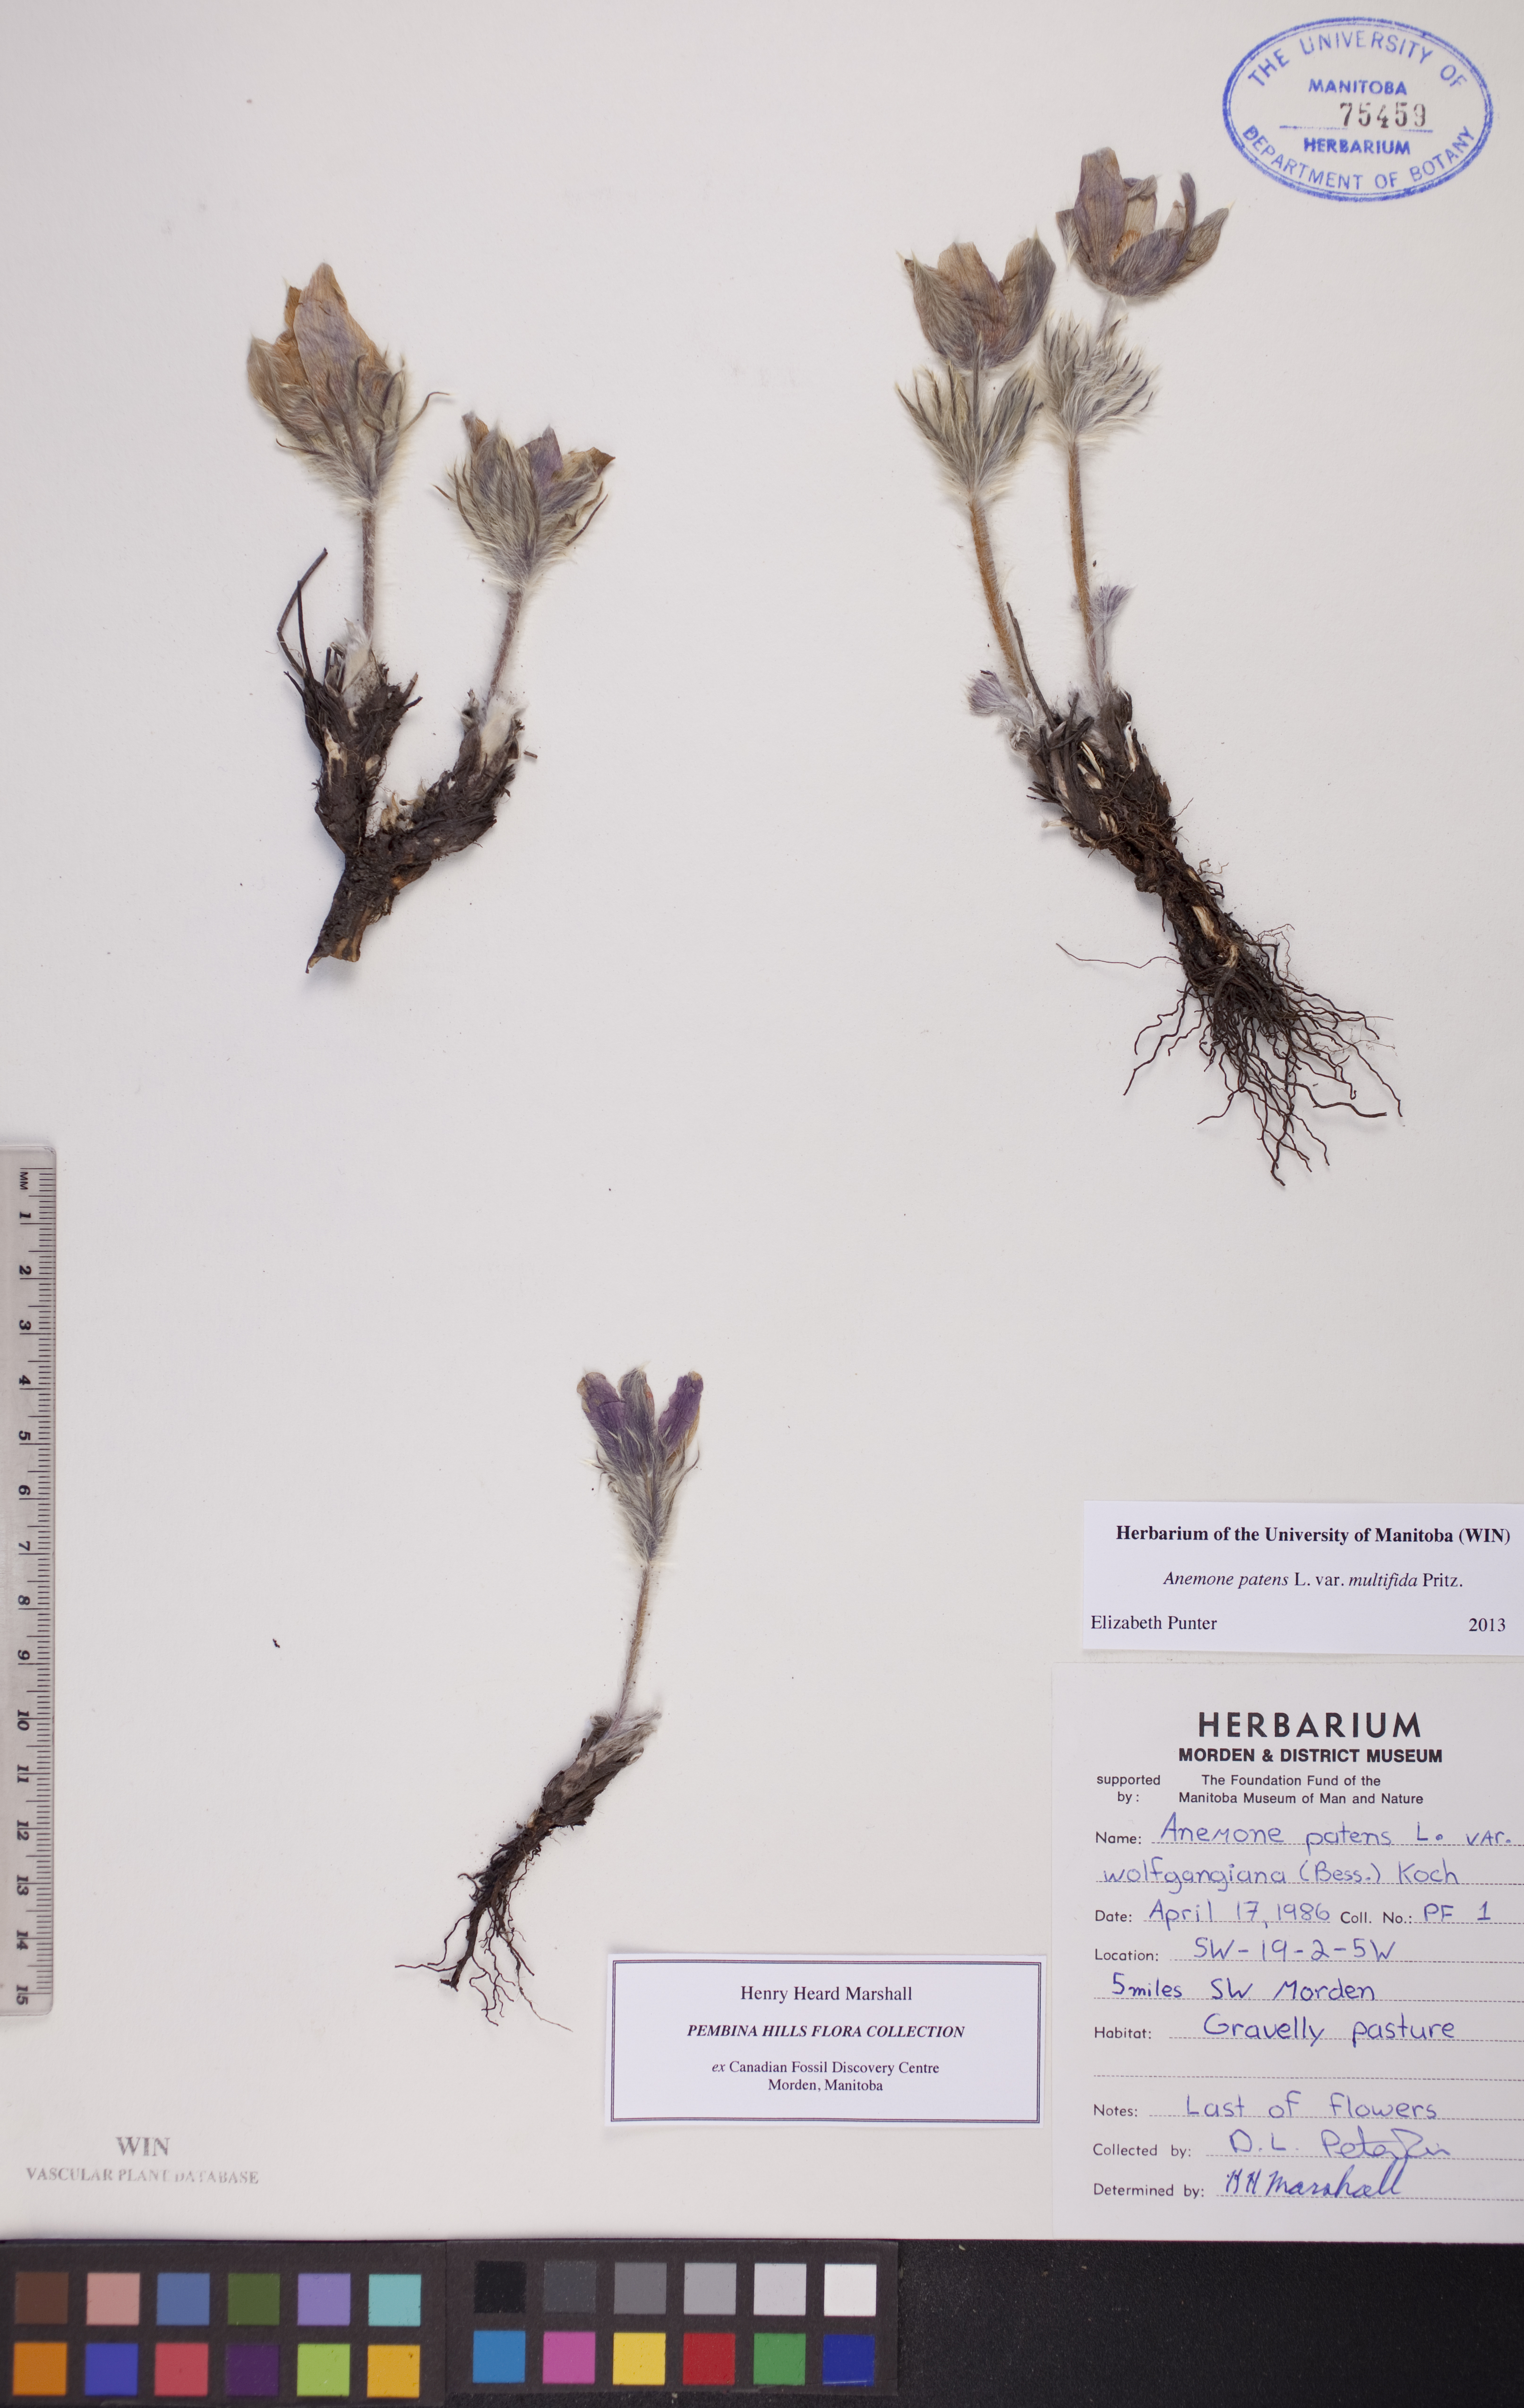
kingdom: Plantae
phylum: Tracheophyta
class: Magnoliopsida
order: Ranunculales
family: Ranunculaceae
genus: Pulsatilla
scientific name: Pulsatilla
